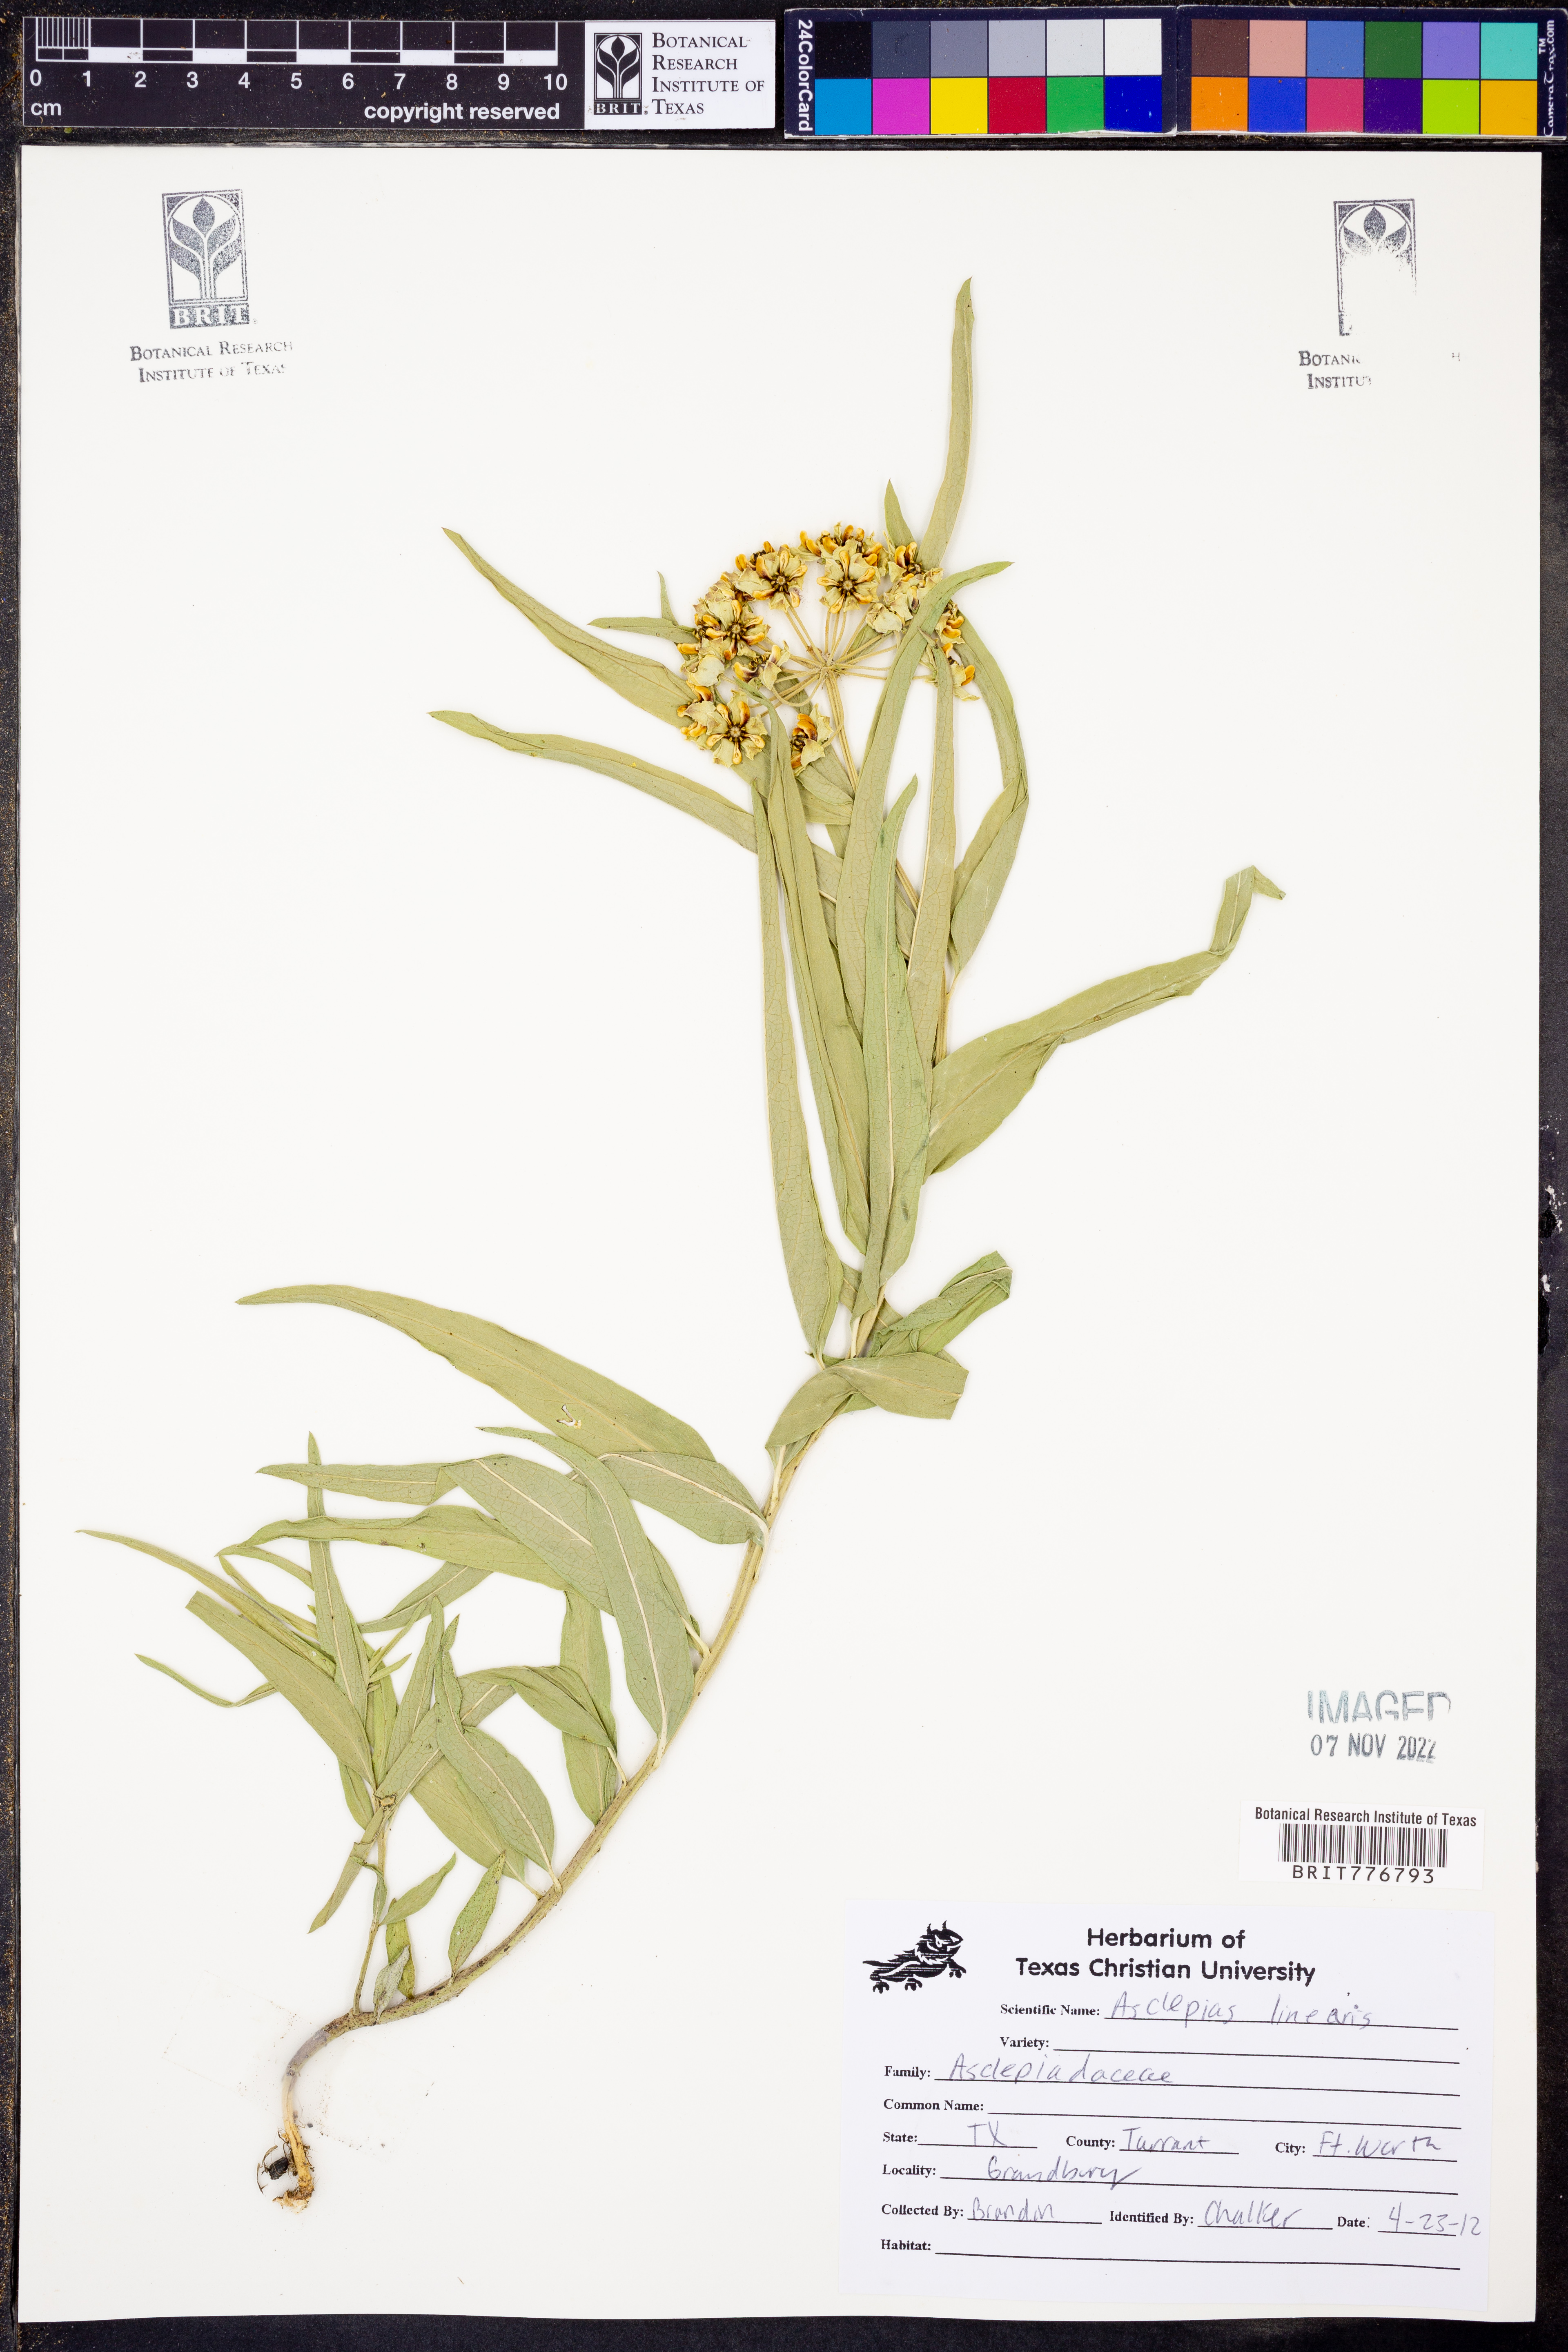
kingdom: Plantae
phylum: Tracheophyta
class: Magnoliopsida
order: Gentianales
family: Apocynaceae
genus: Asclepias
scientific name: Asclepias linearis
